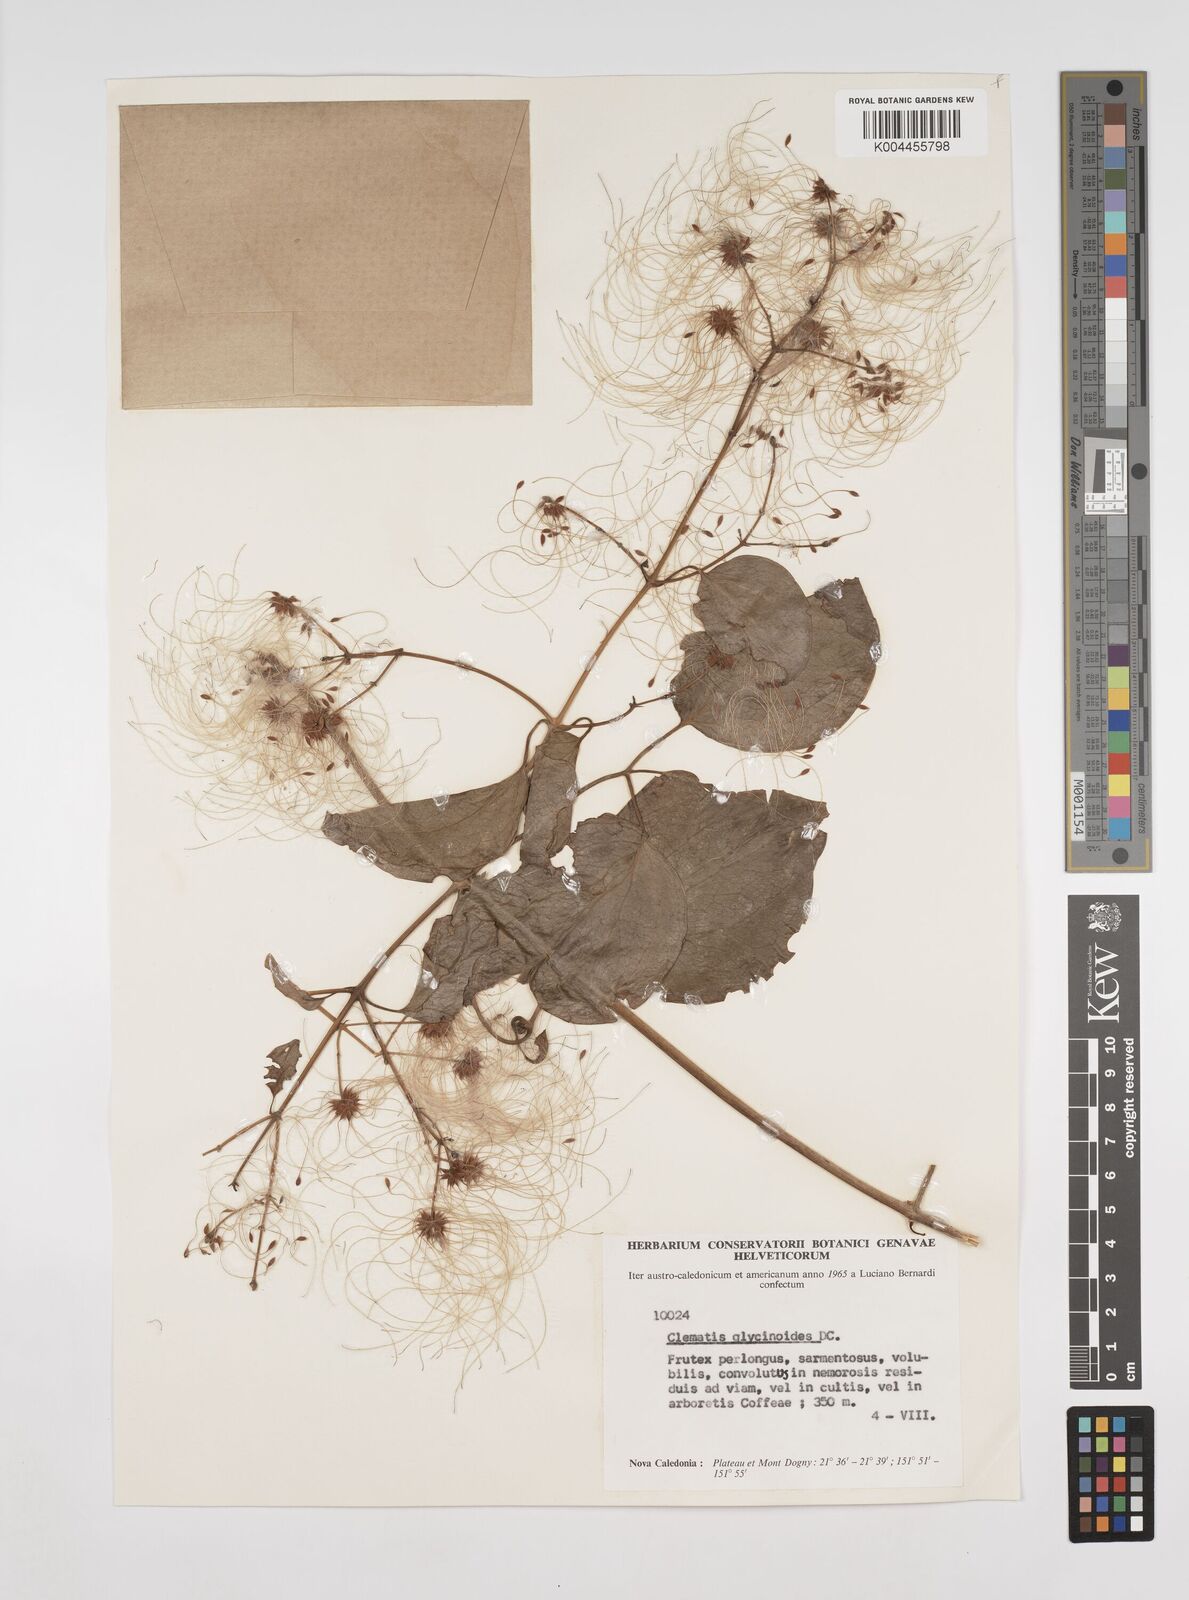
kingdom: Plantae
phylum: Tracheophyta
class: Magnoliopsida
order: Ranunculales
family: Ranunculaceae
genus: Clematis
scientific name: Clematis glycinoides
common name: Forest clematis
